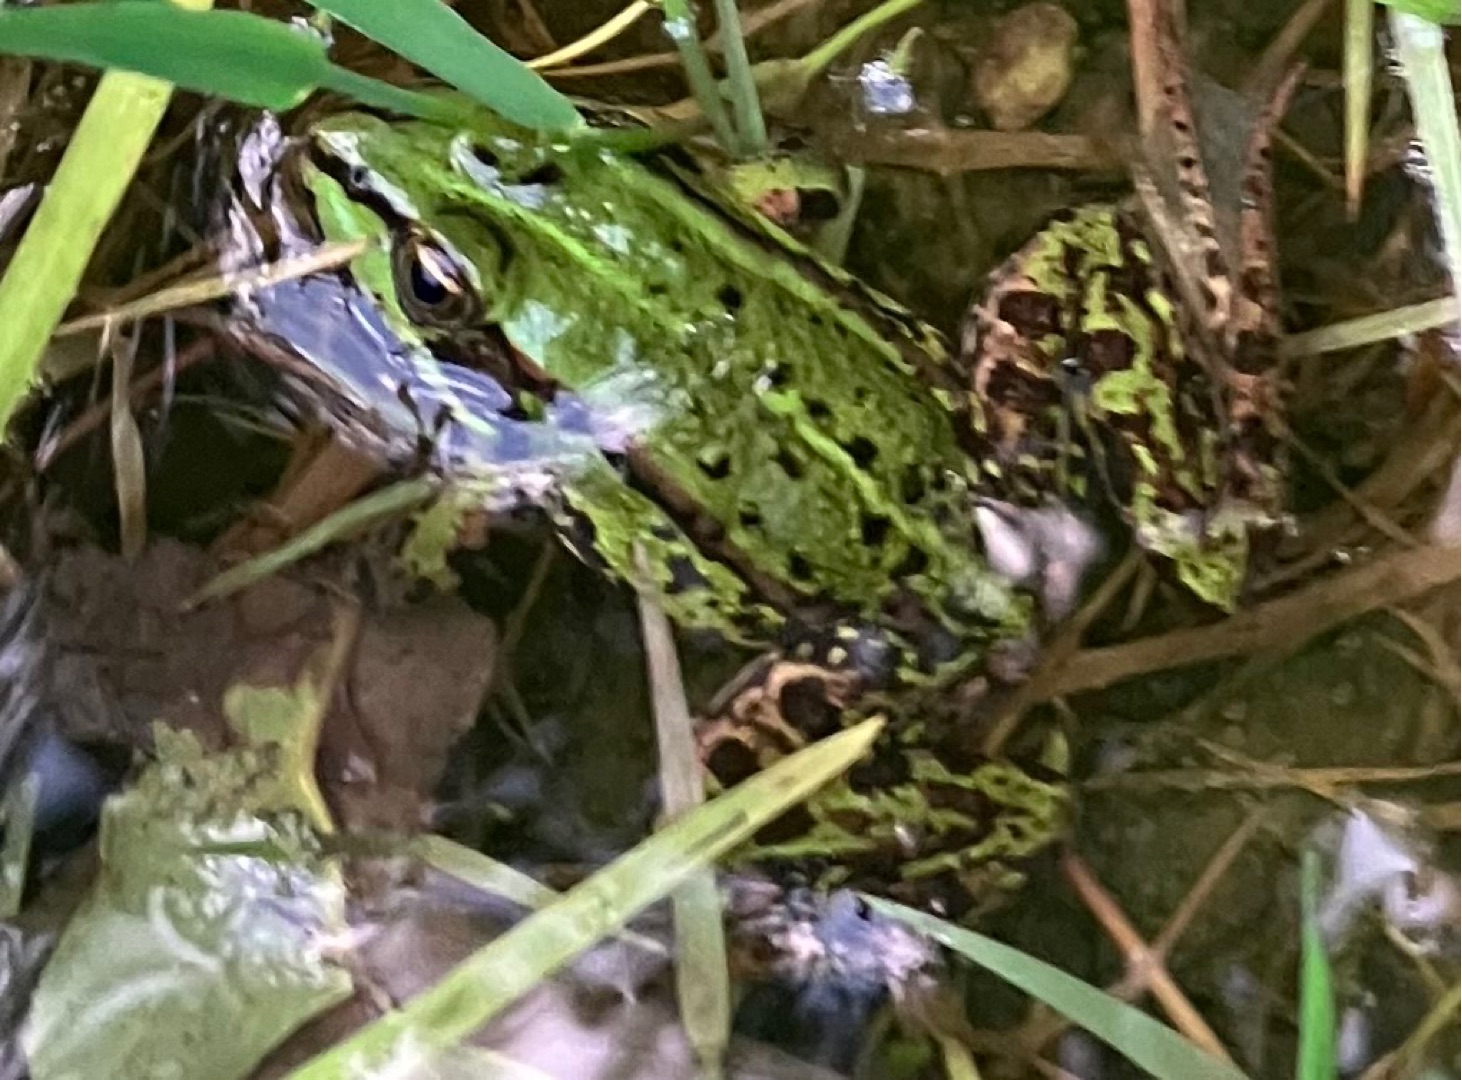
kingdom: Animalia
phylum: Chordata
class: Amphibia
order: Anura
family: Ranidae
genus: Pelophylax
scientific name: Pelophylax lessonae
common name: Grøn frø
